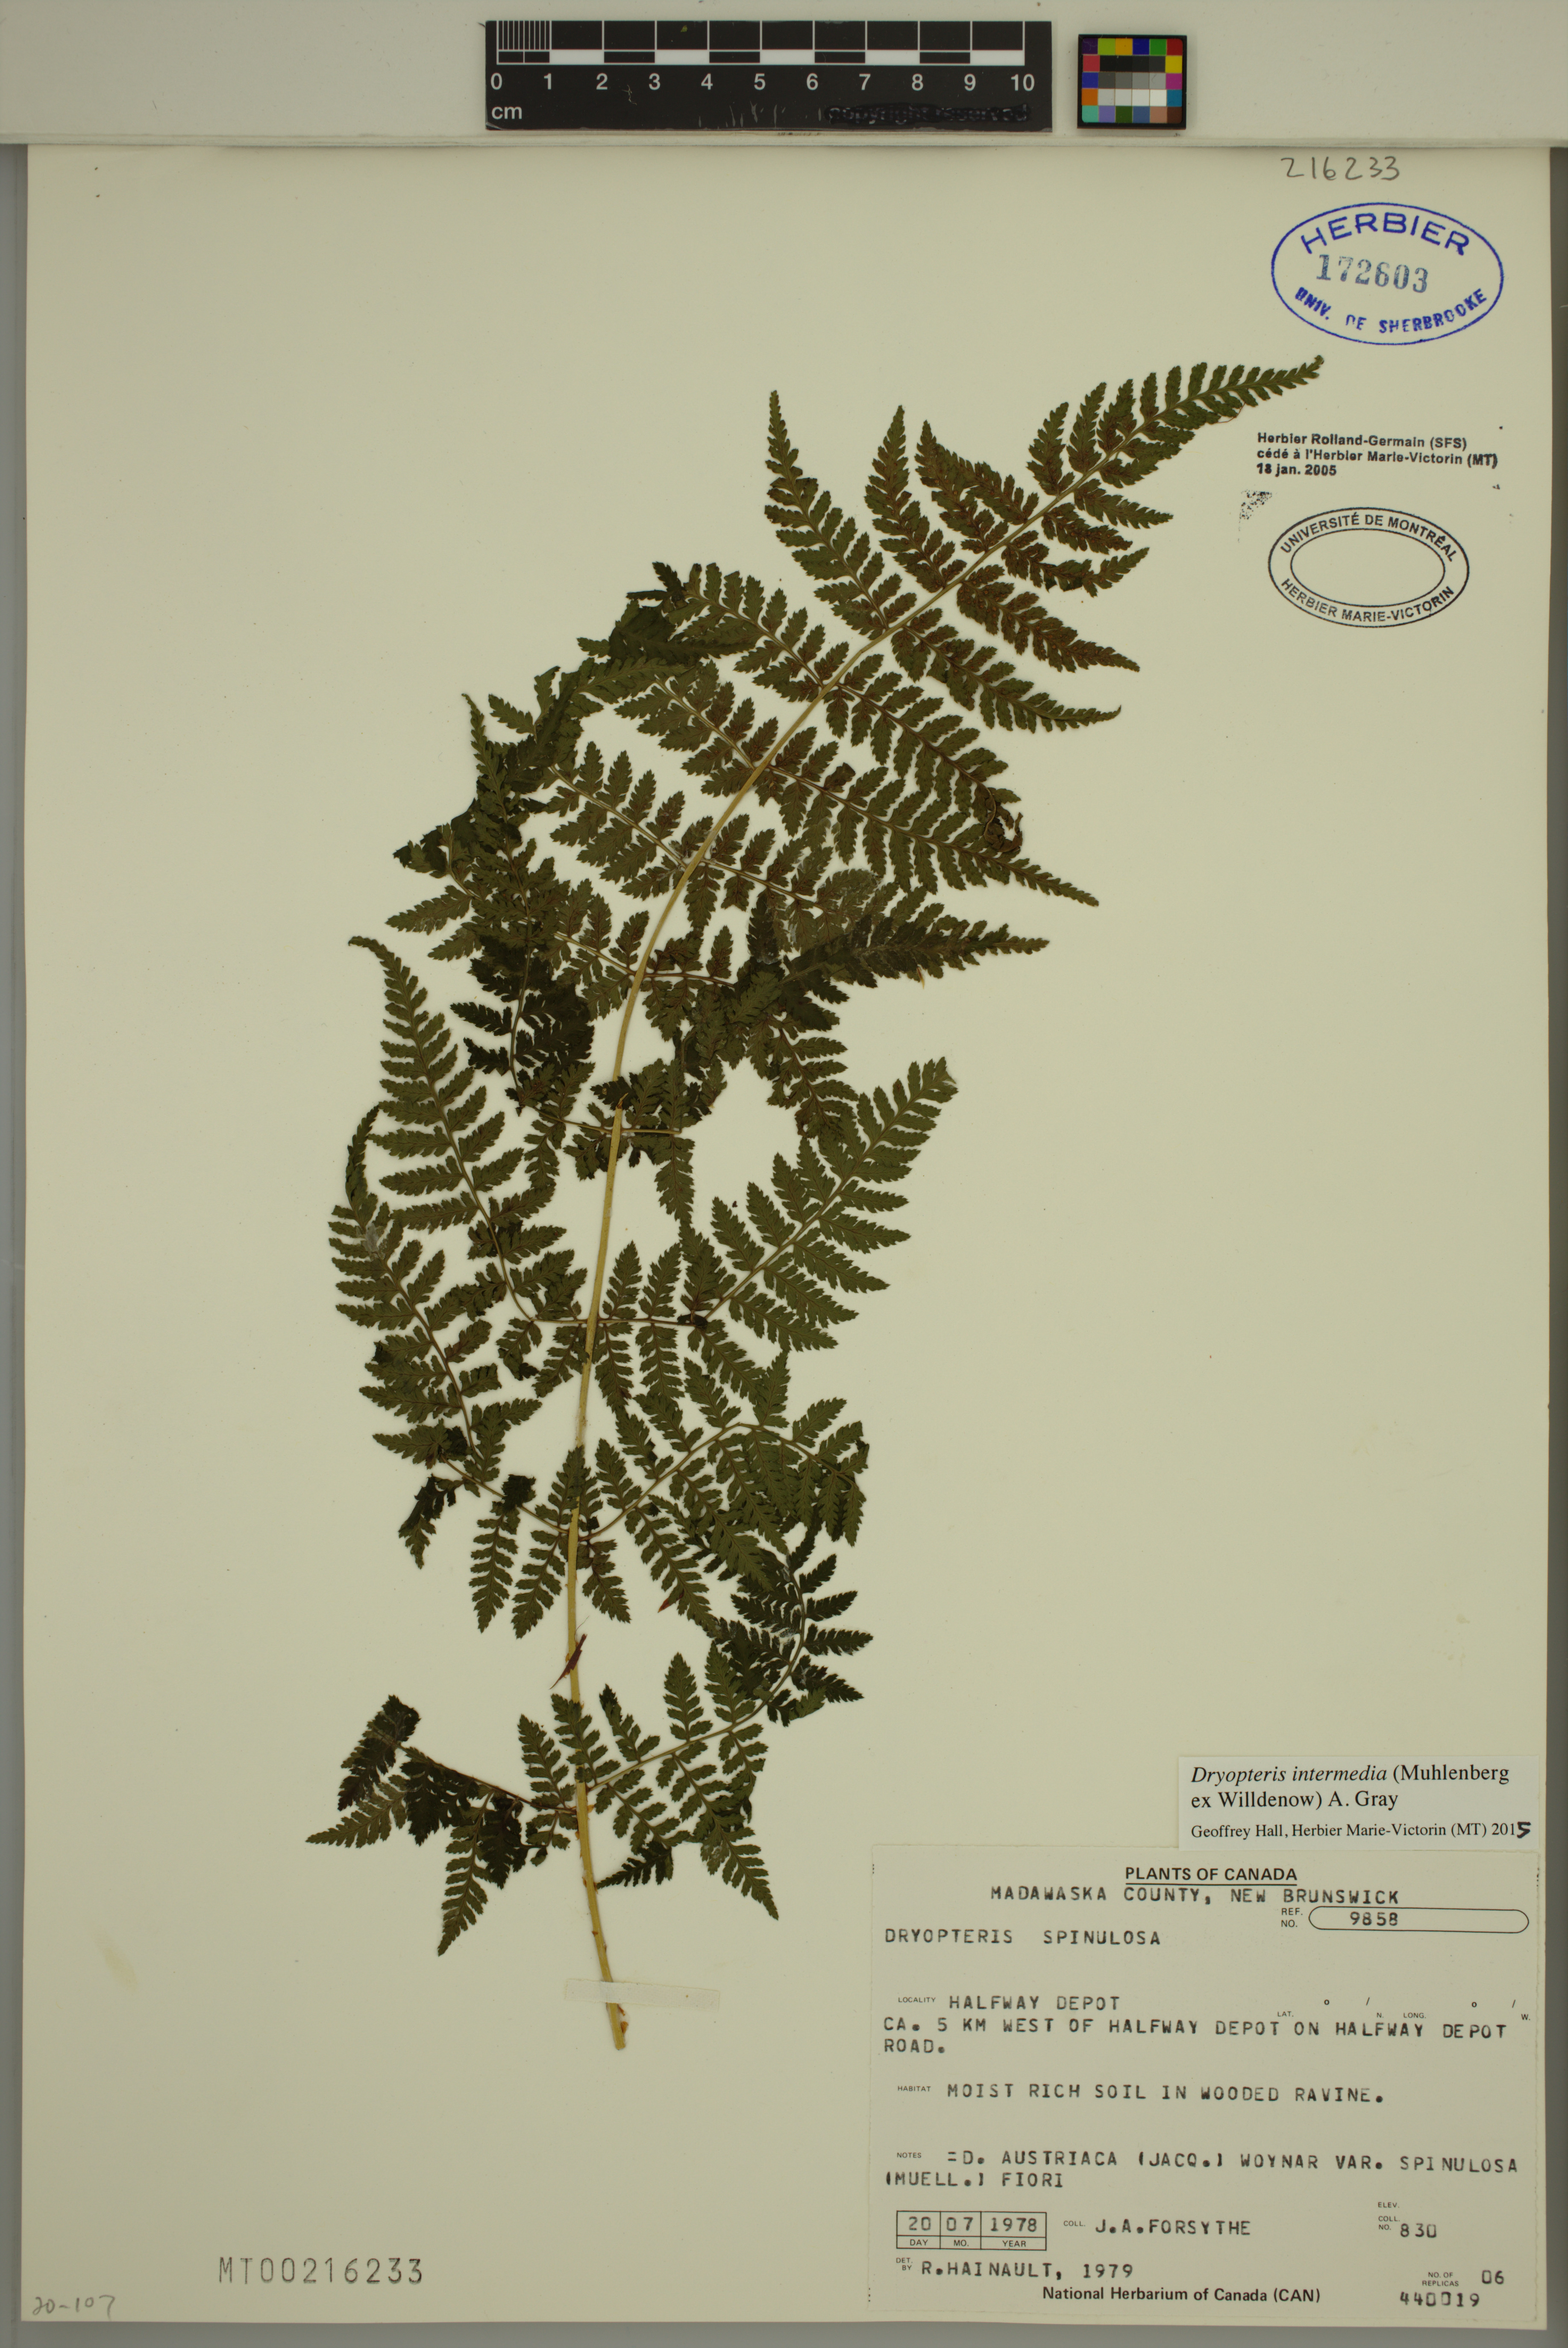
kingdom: Plantae
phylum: Tracheophyta
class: Polypodiopsida
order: Polypodiales
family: Dryopteridaceae
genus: Dryopteris
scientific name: Dryopteris intermedia
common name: Evergreen wood fern
